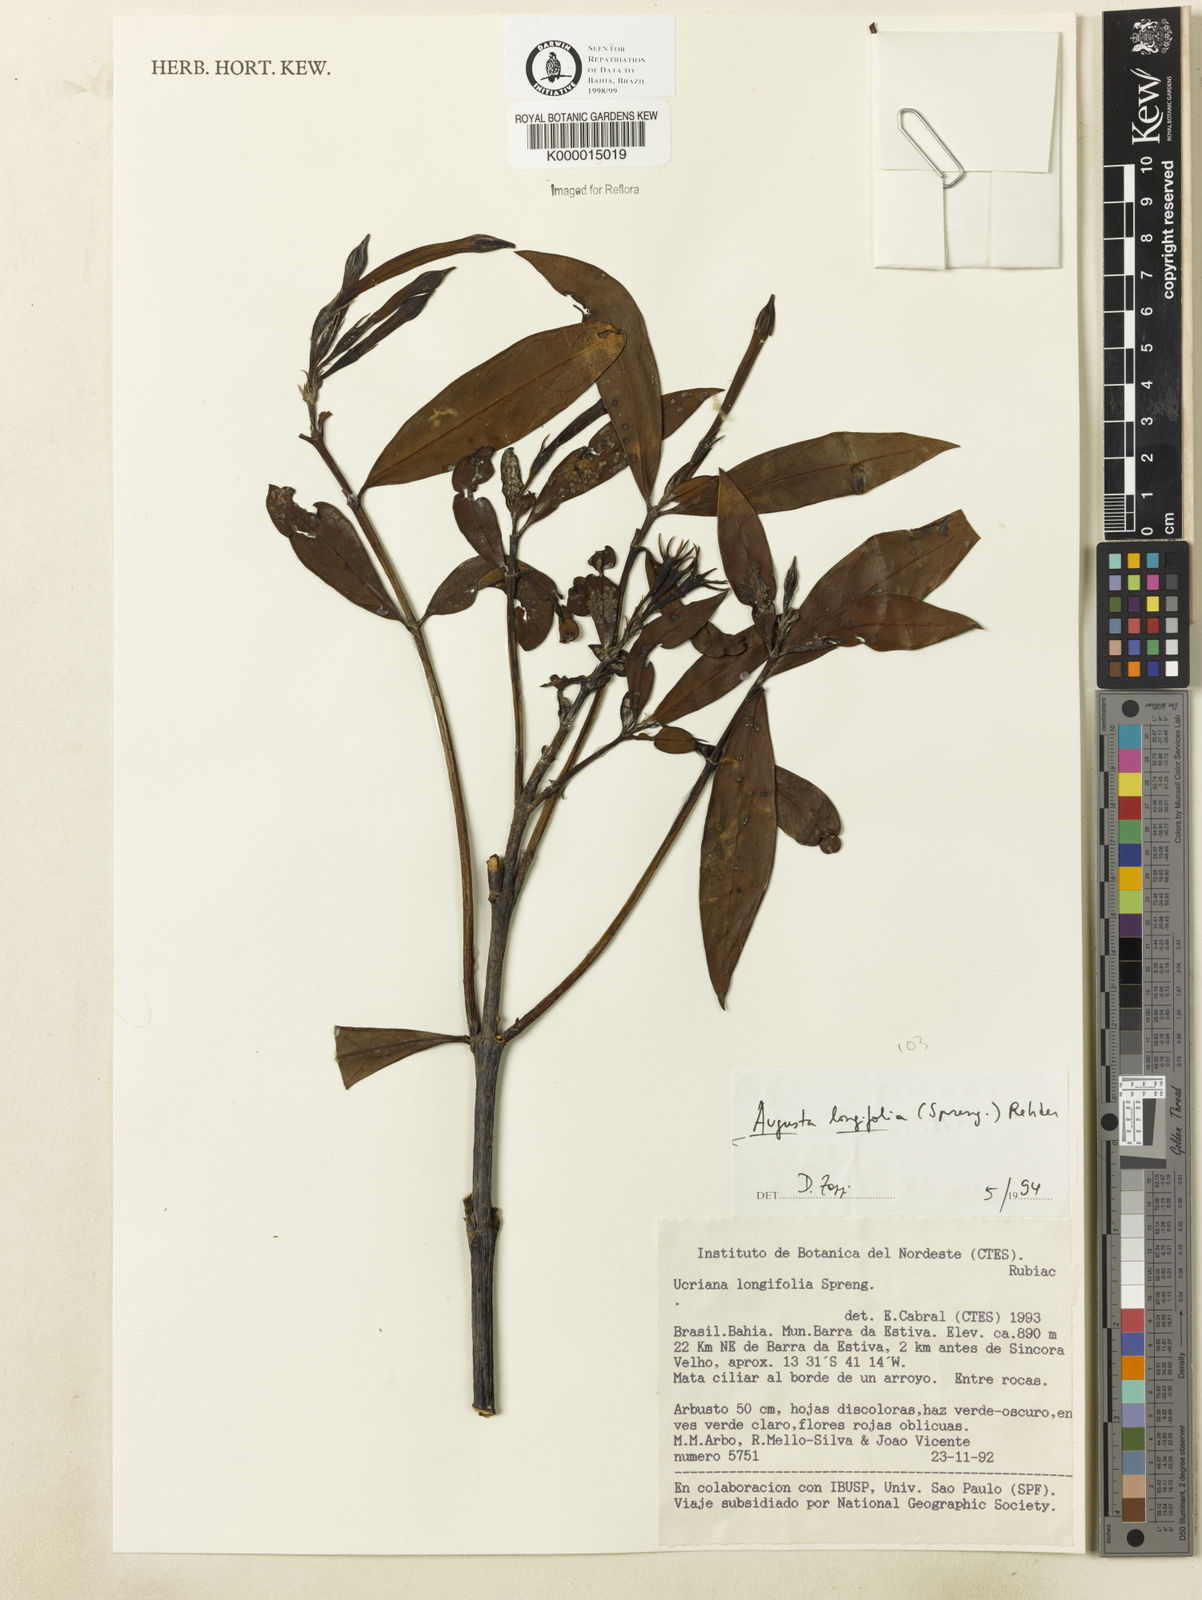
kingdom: Plantae
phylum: Tracheophyta
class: Magnoliopsida
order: Gentianales
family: Rubiaceae
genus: Augusta
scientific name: Augusta longifolia
